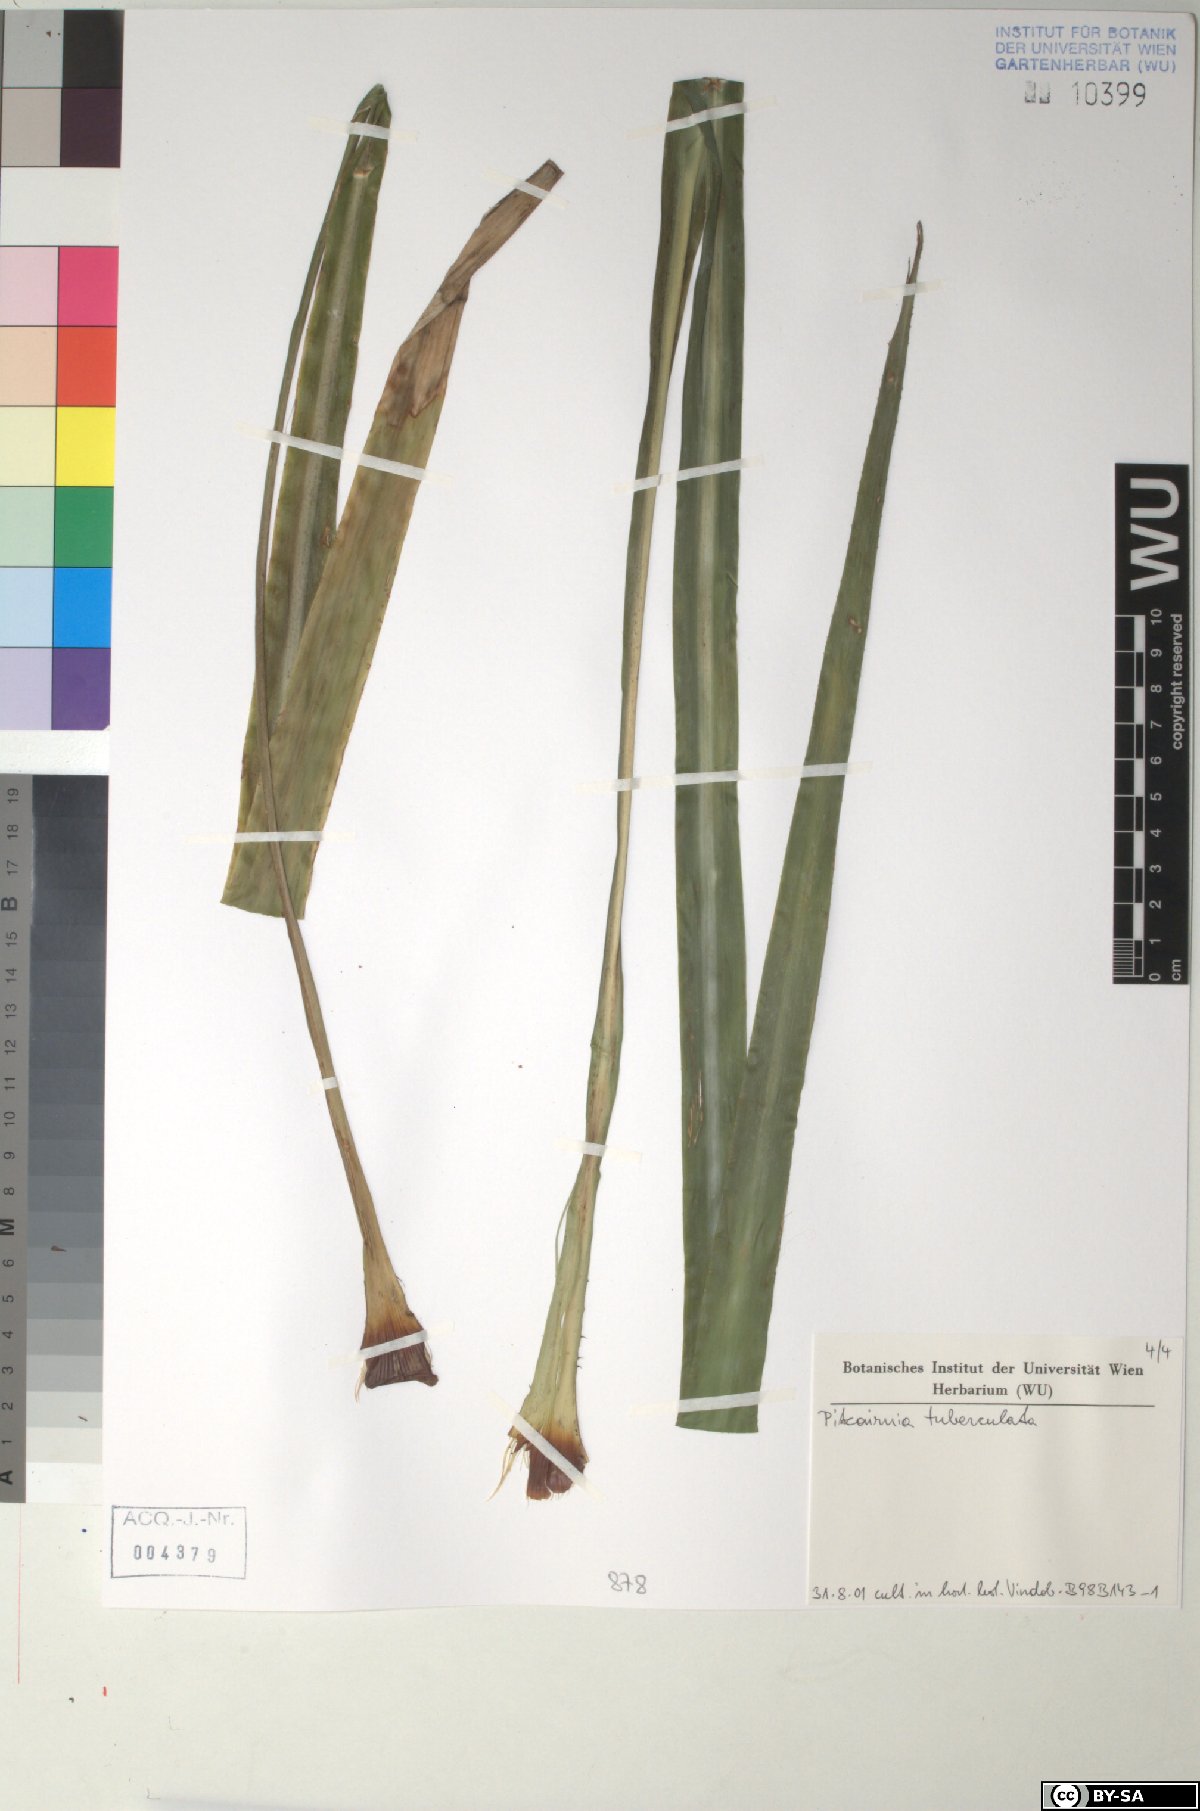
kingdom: Plantae
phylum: Tracheophyta
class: Liliopsida
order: Poales
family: Bromeliaceae
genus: Pitcairnia
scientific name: Pitcairnia tuberculata
